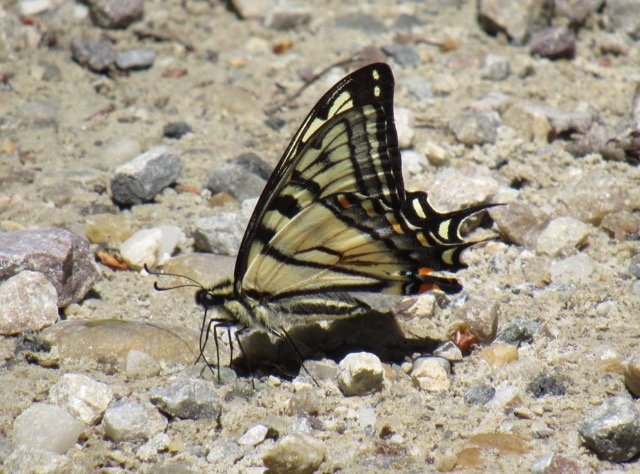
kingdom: Animalia
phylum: Arthropoda
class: Insecta
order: Lepidoptera
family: Papilionidae
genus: Pterourus
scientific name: Pterourus canadensis
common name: Canadian Tiger Swallowtail
